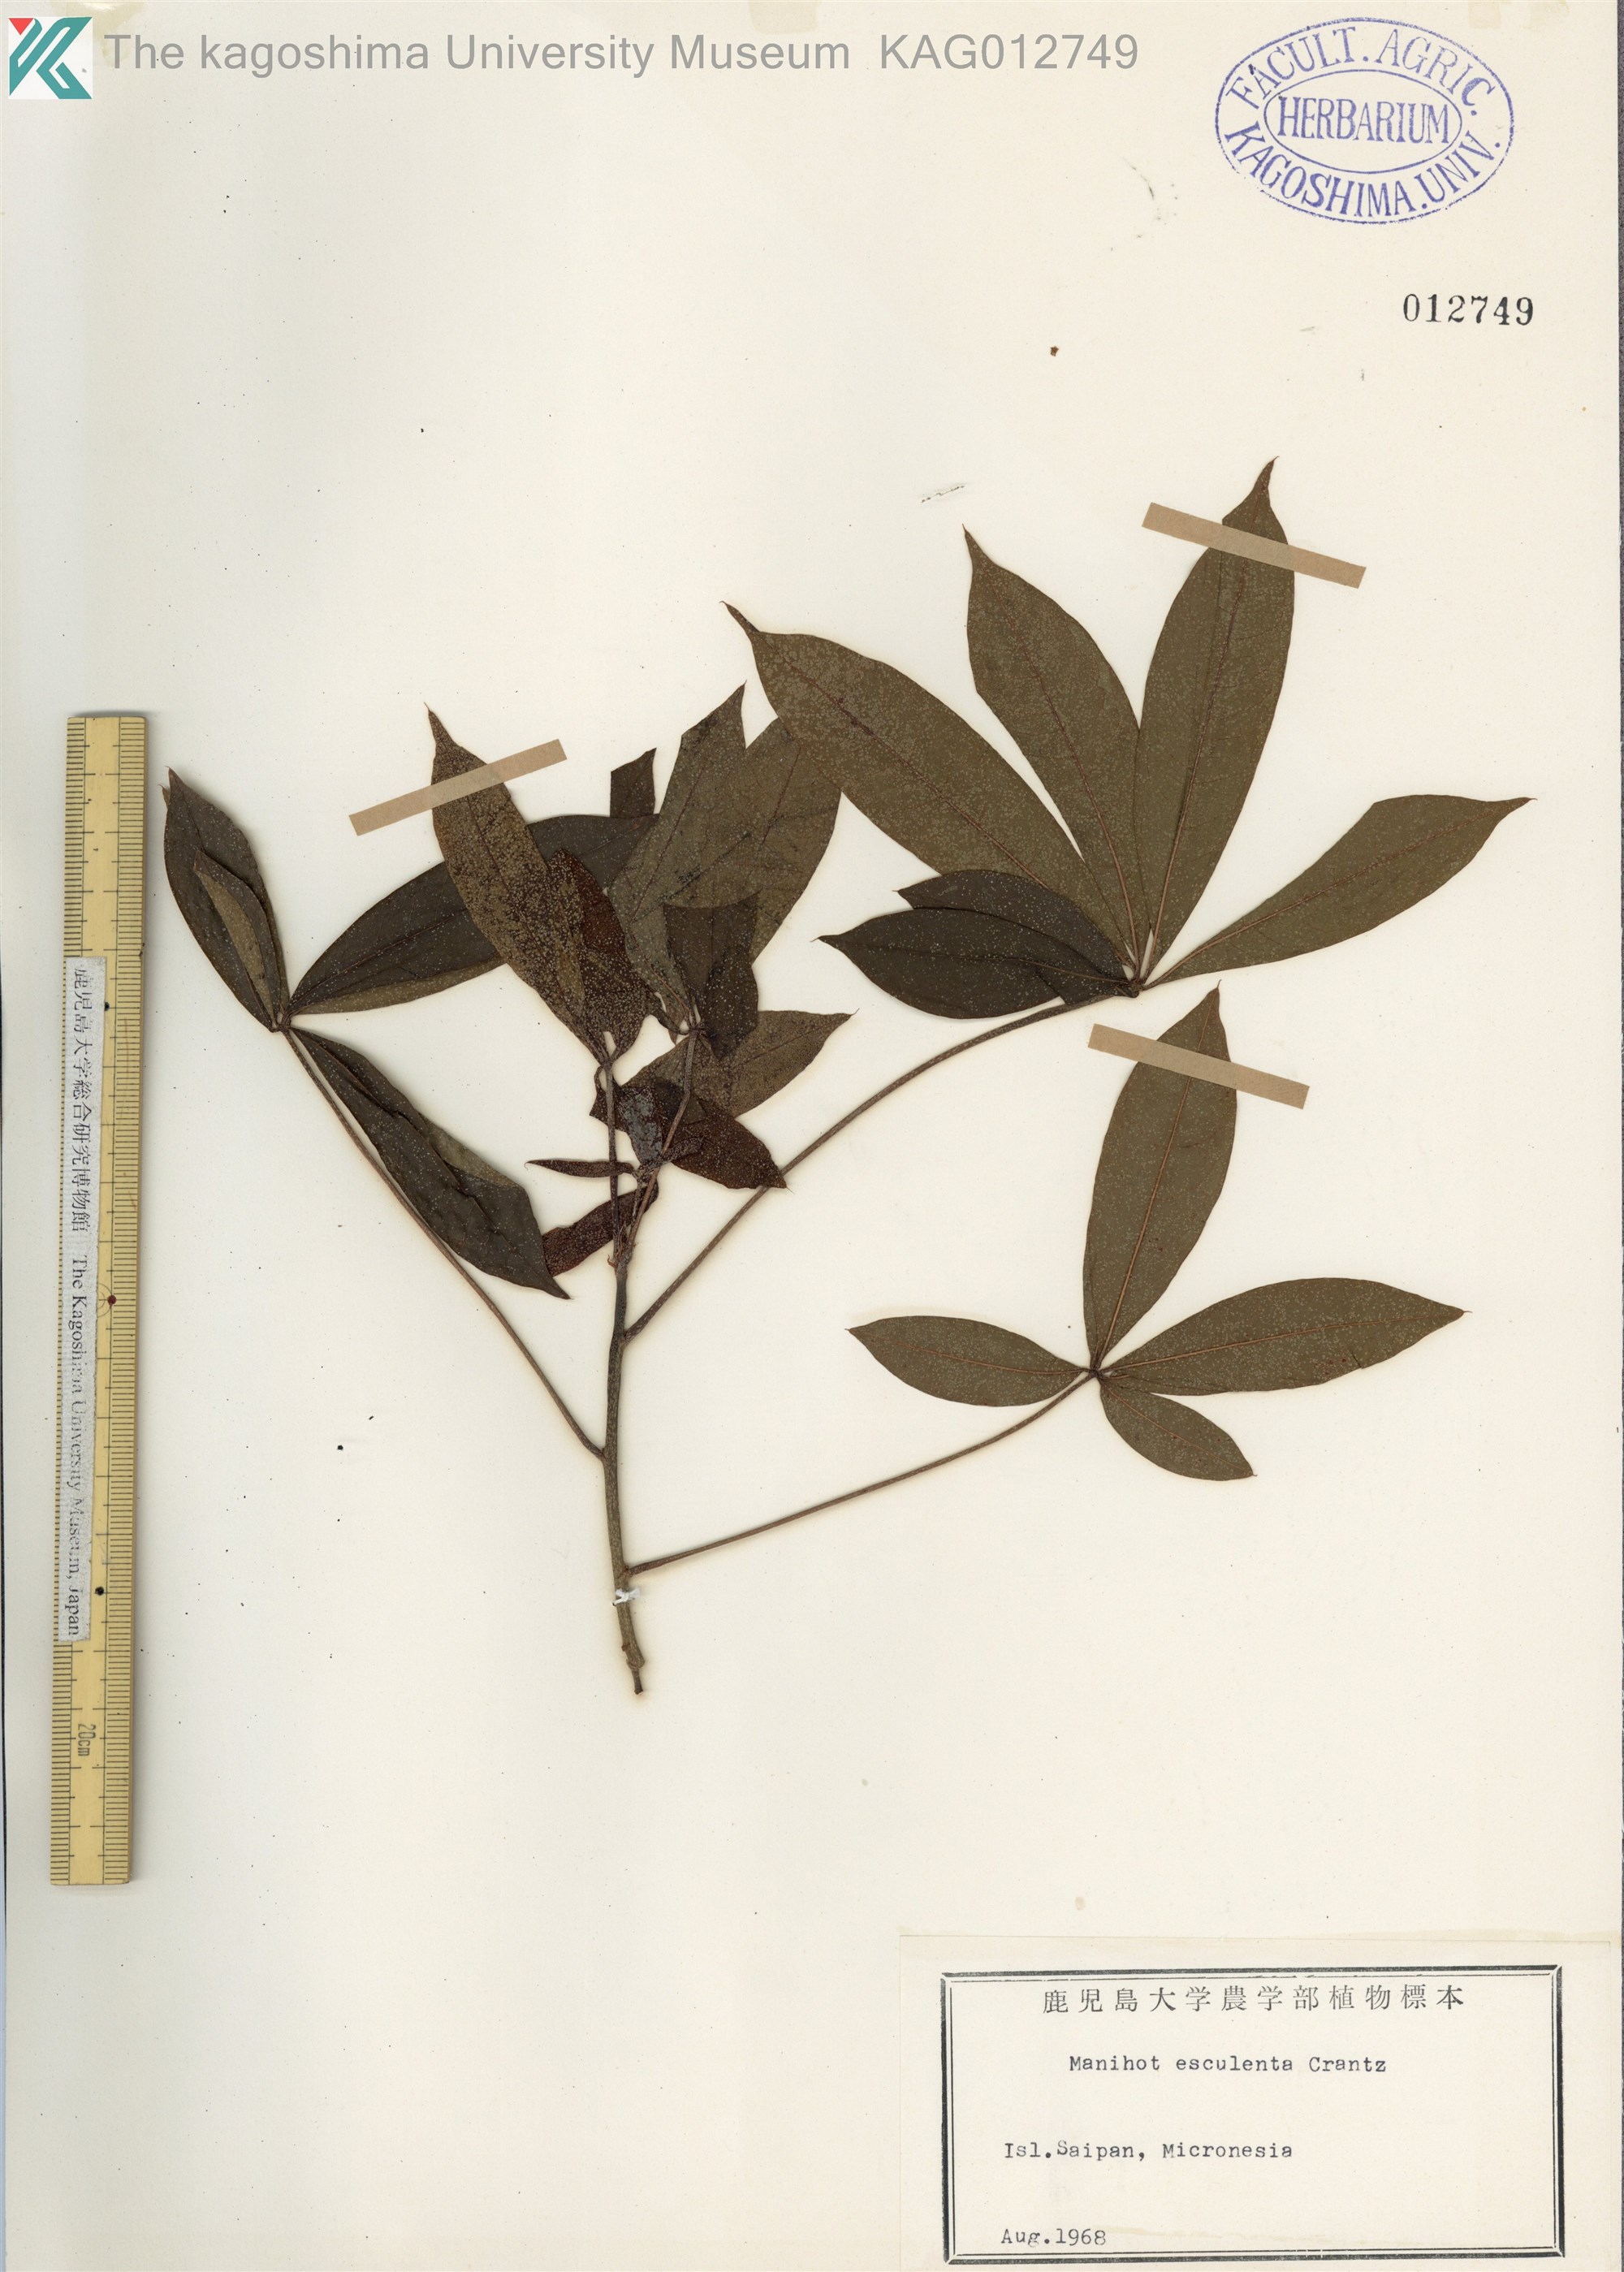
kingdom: Plantae
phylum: Tracheophyta
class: Magnoliopsida
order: Malpighiales
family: Euphorbiaceae
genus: Manihot
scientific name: Manihot esculenta
